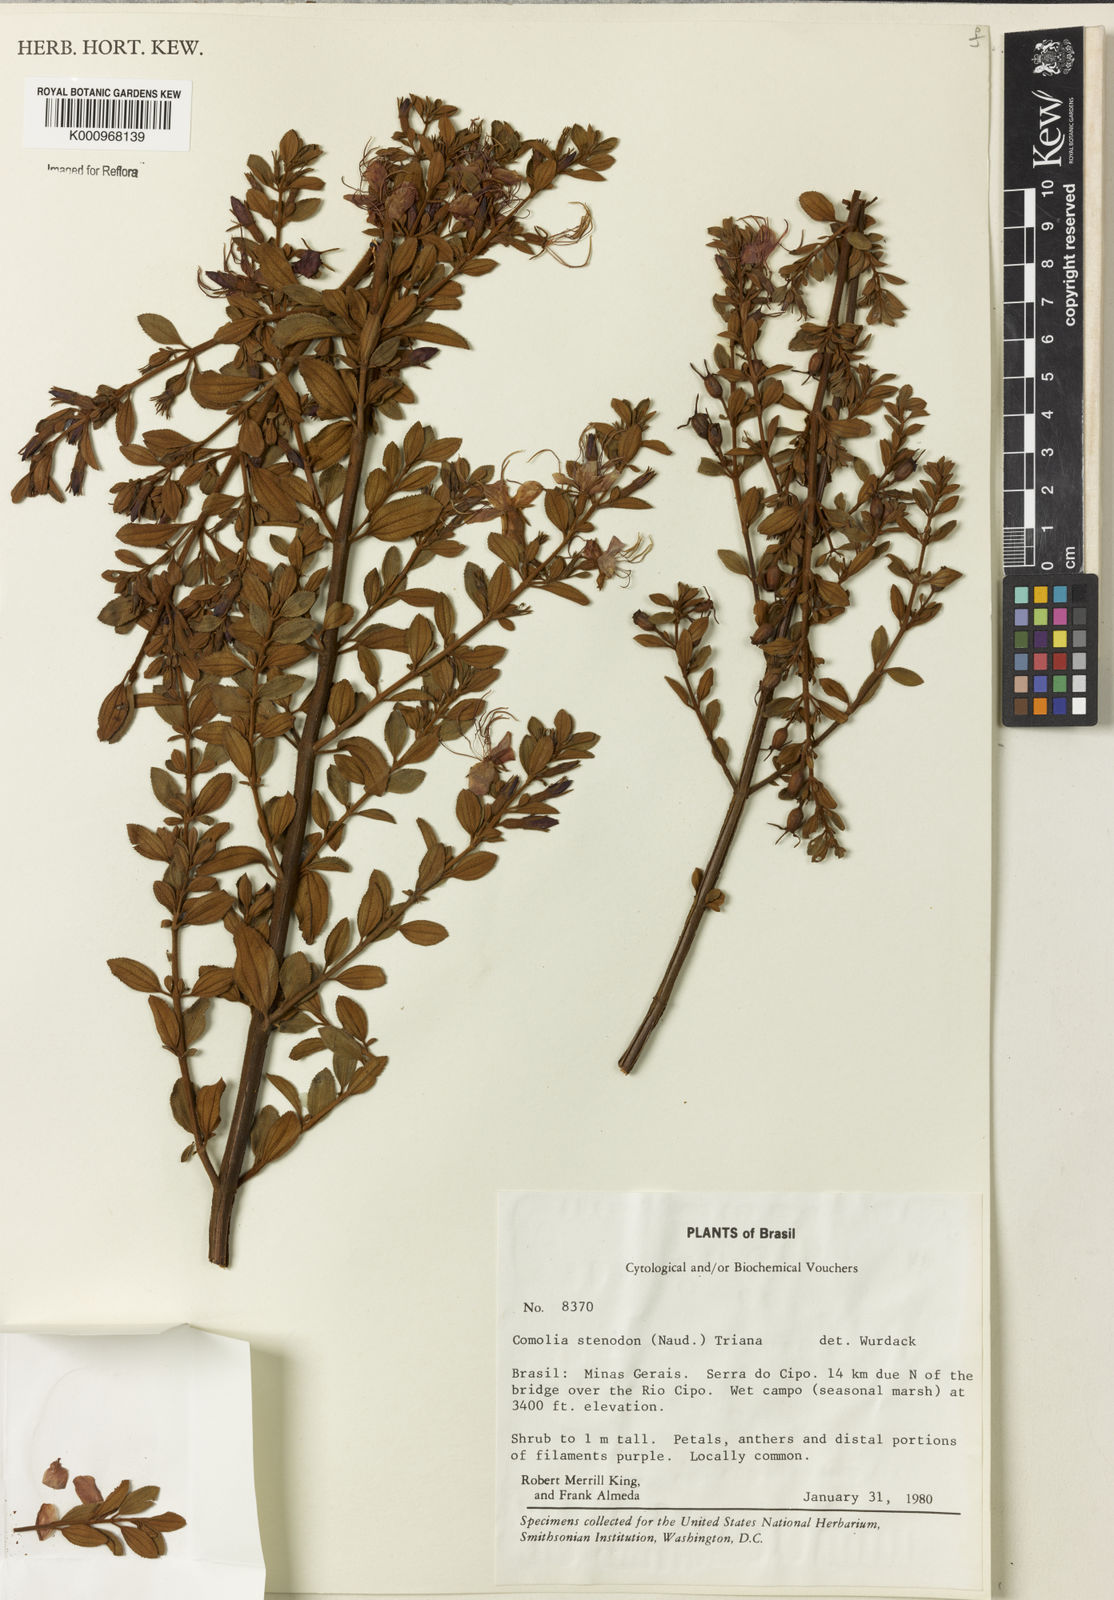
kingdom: Plantae
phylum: Tracheophyta
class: Magnoliopsida
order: Myrtales
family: Melastomataceae
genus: Fritzschia
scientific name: Fritzschia stenodon
